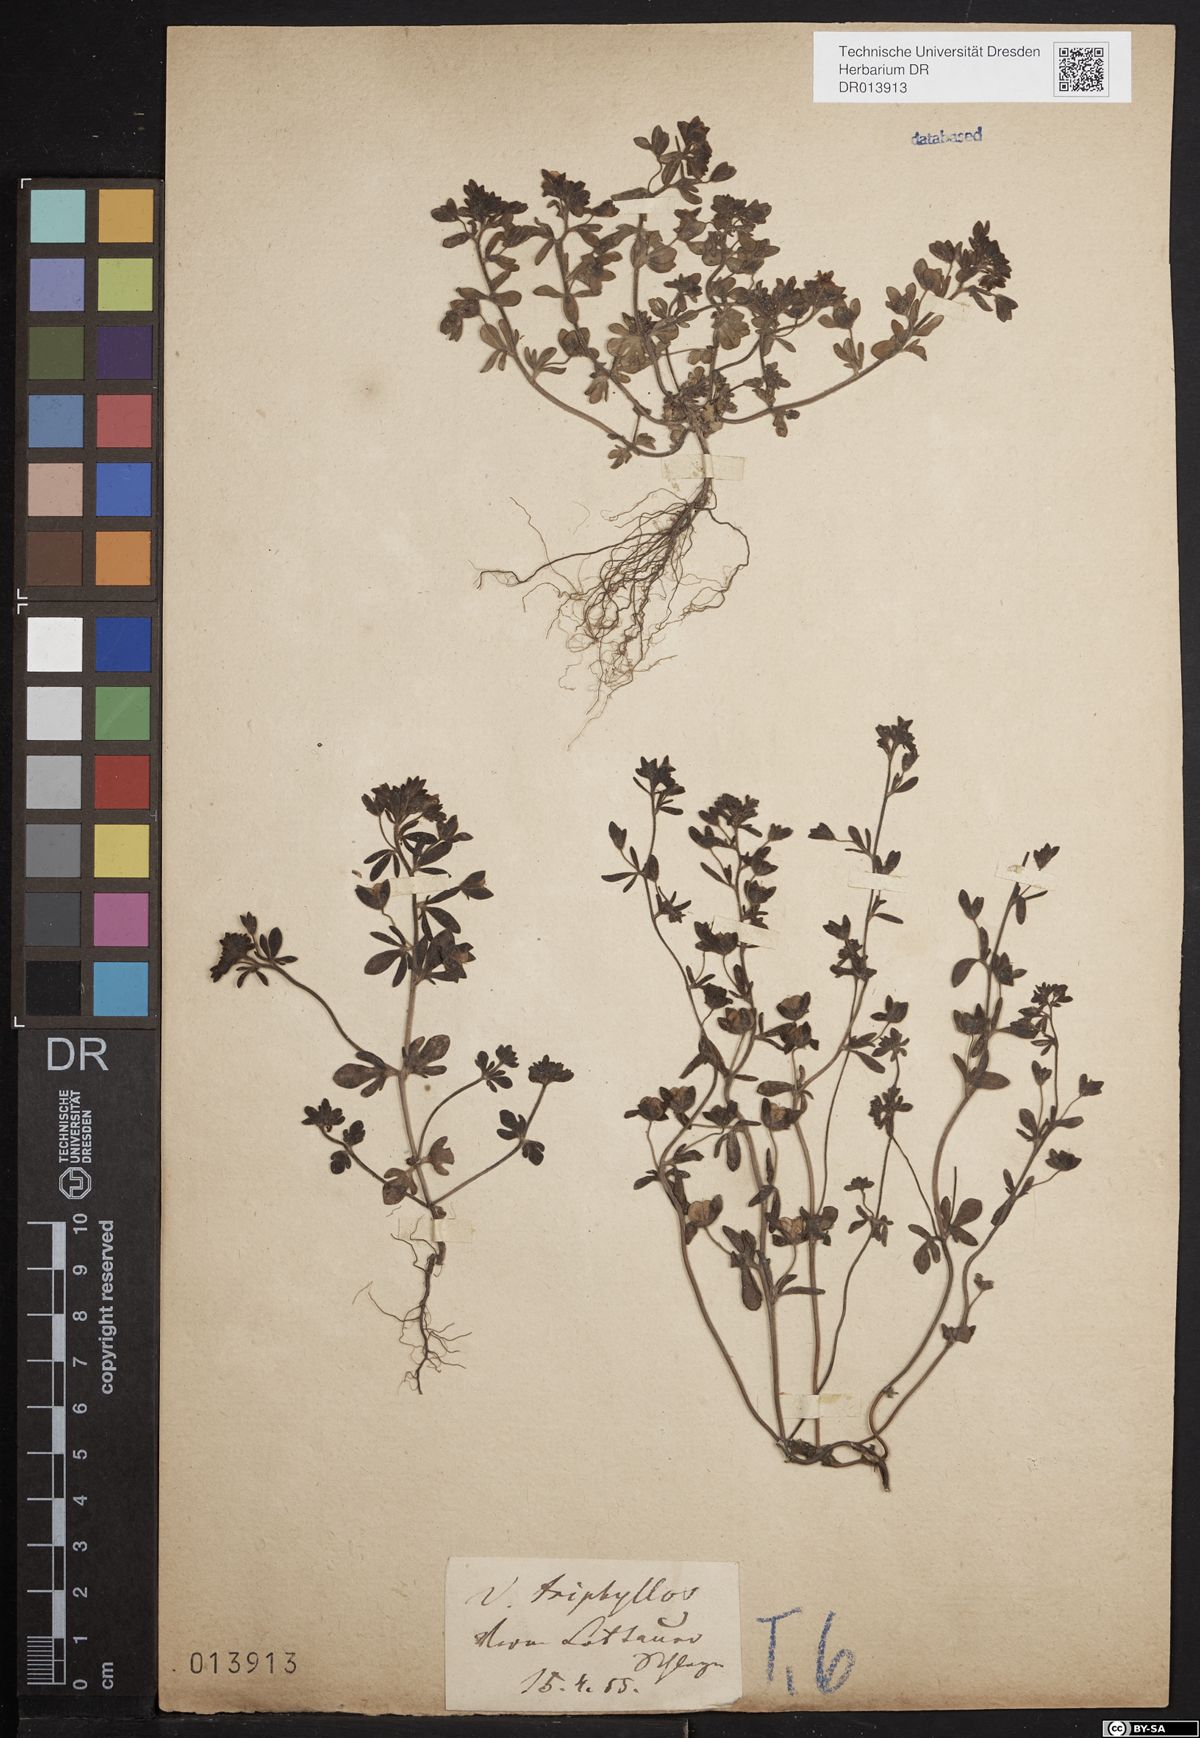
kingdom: Plantae
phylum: Tracheophyta
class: Magnoliopsida
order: Lamiales
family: Plantaginaceae
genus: Veronica
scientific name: Veronica triphyllos
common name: Fingered speedwell
